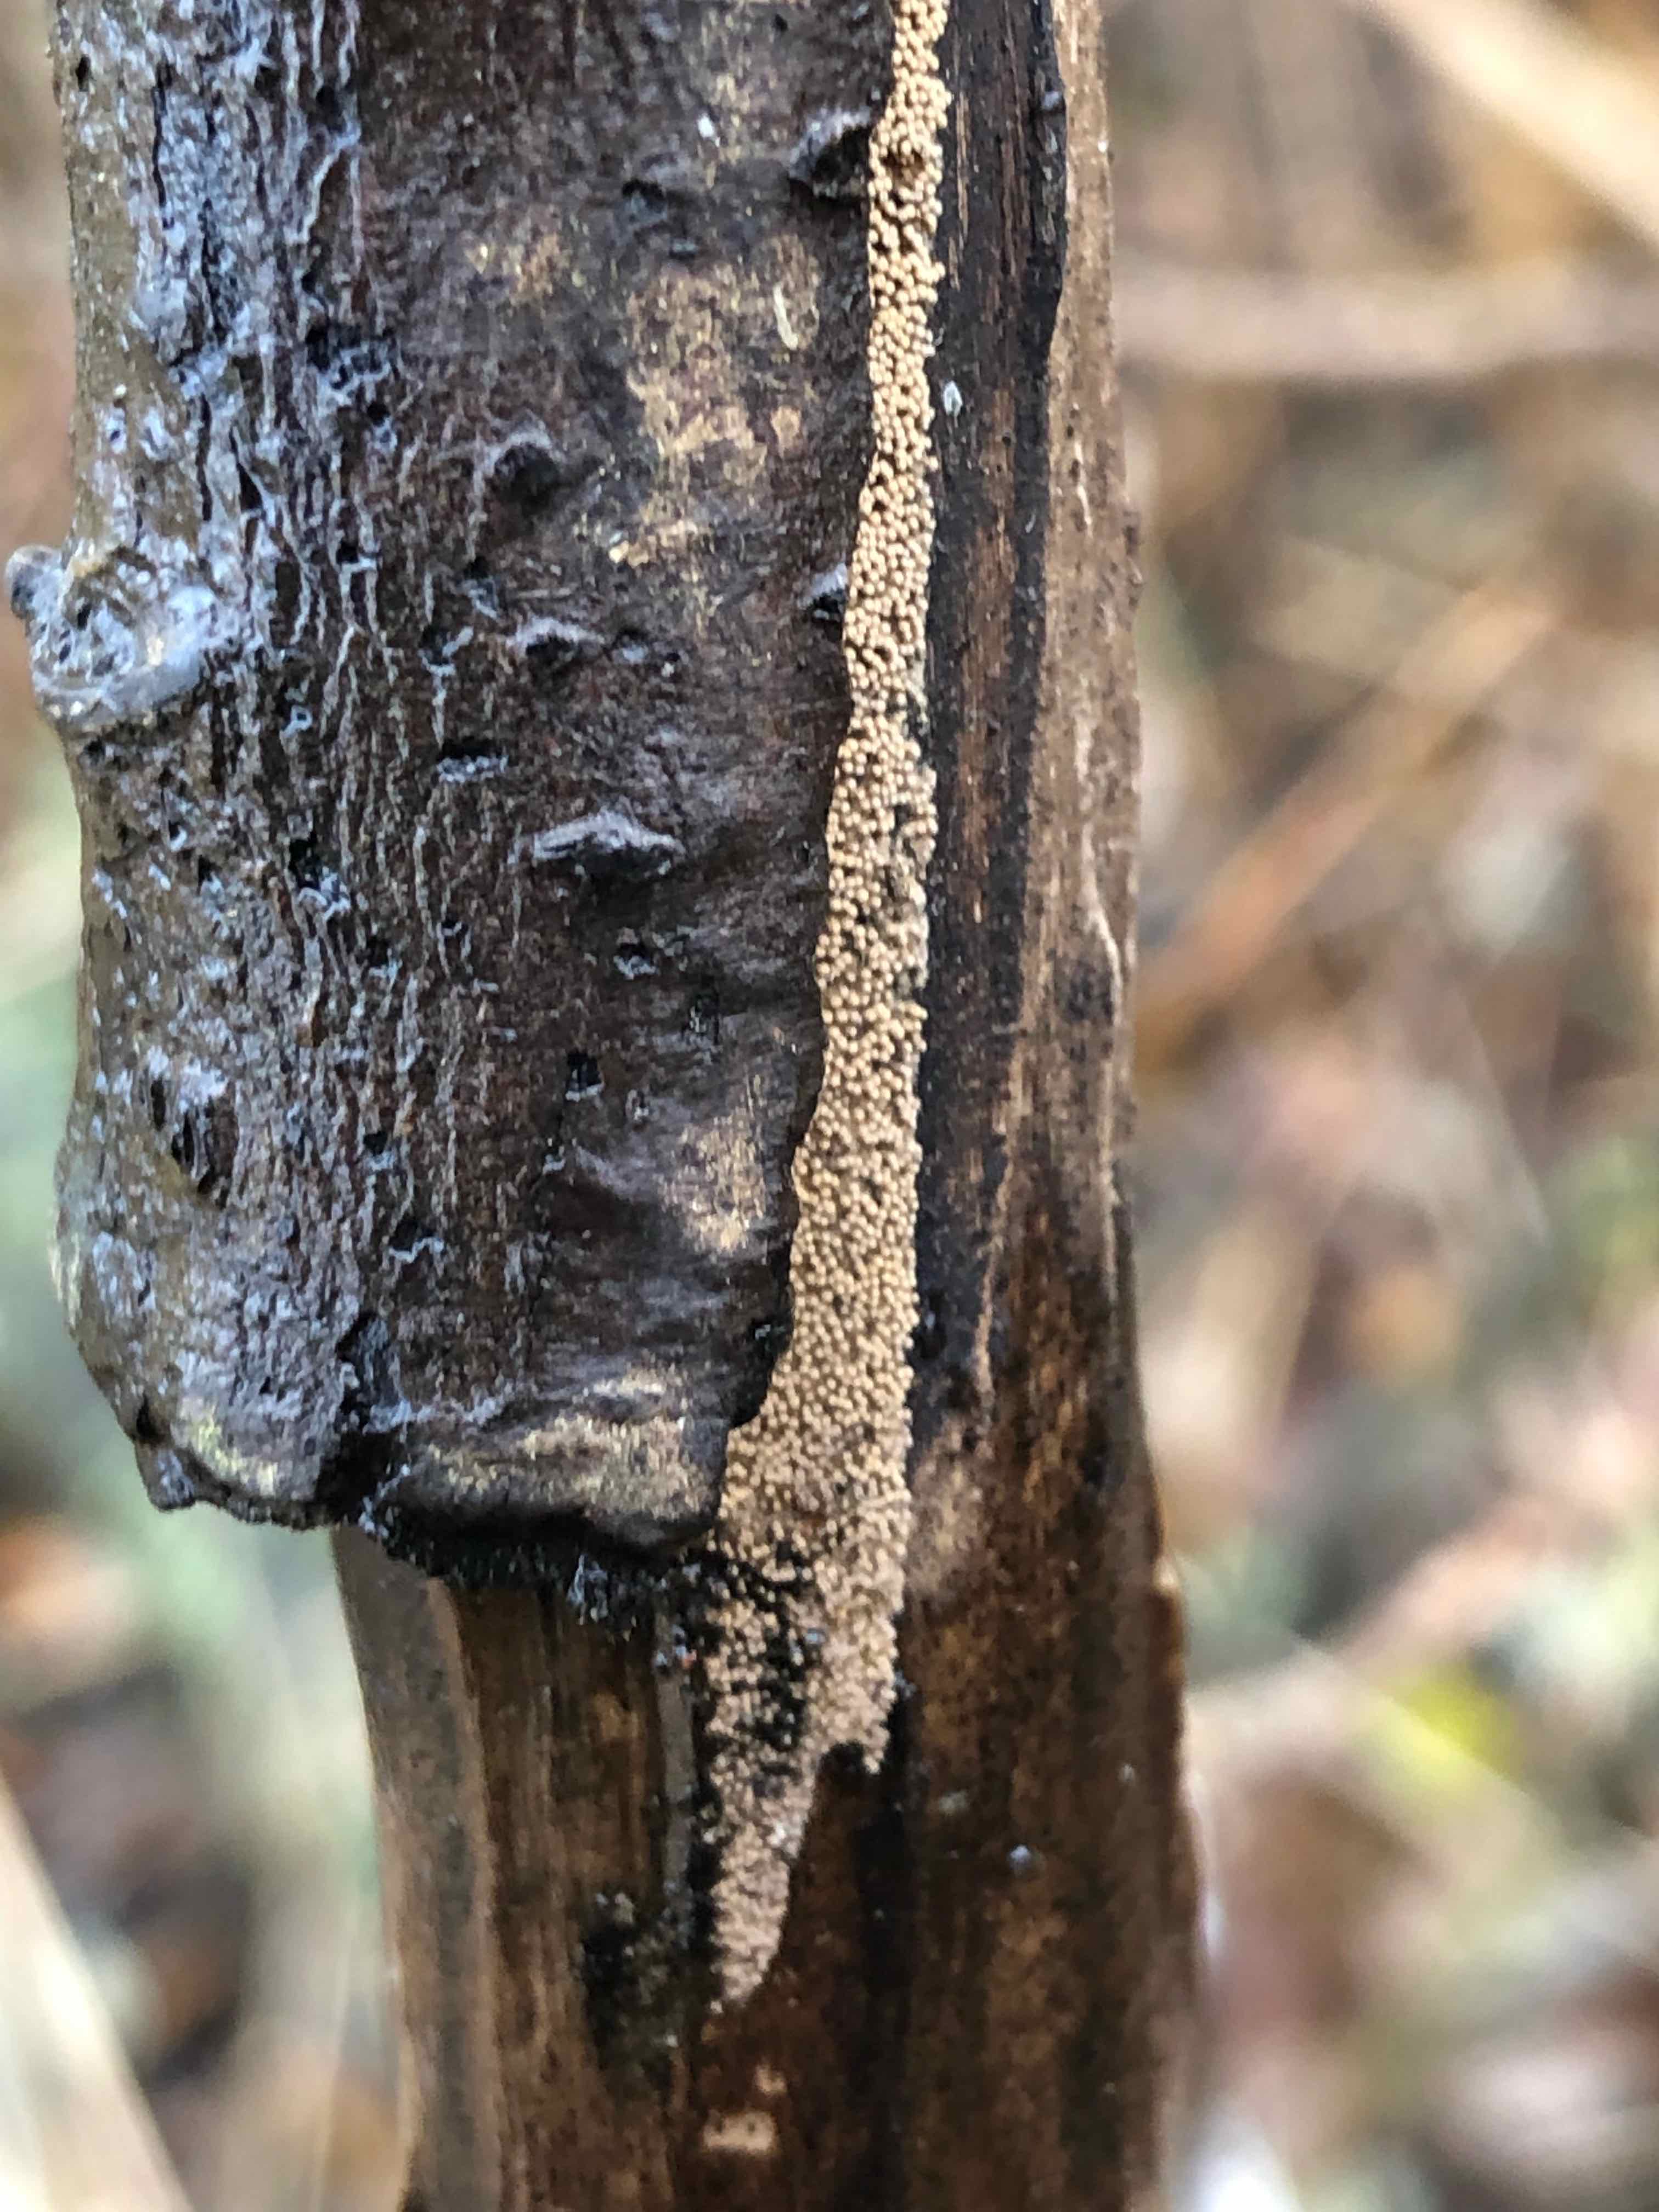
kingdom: Fungi
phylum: Basidiomycota
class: Agaricomycetes
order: Agaricales
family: Niaceae
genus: Merismodes
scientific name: Merismodes anomala
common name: almindelig læderskål
